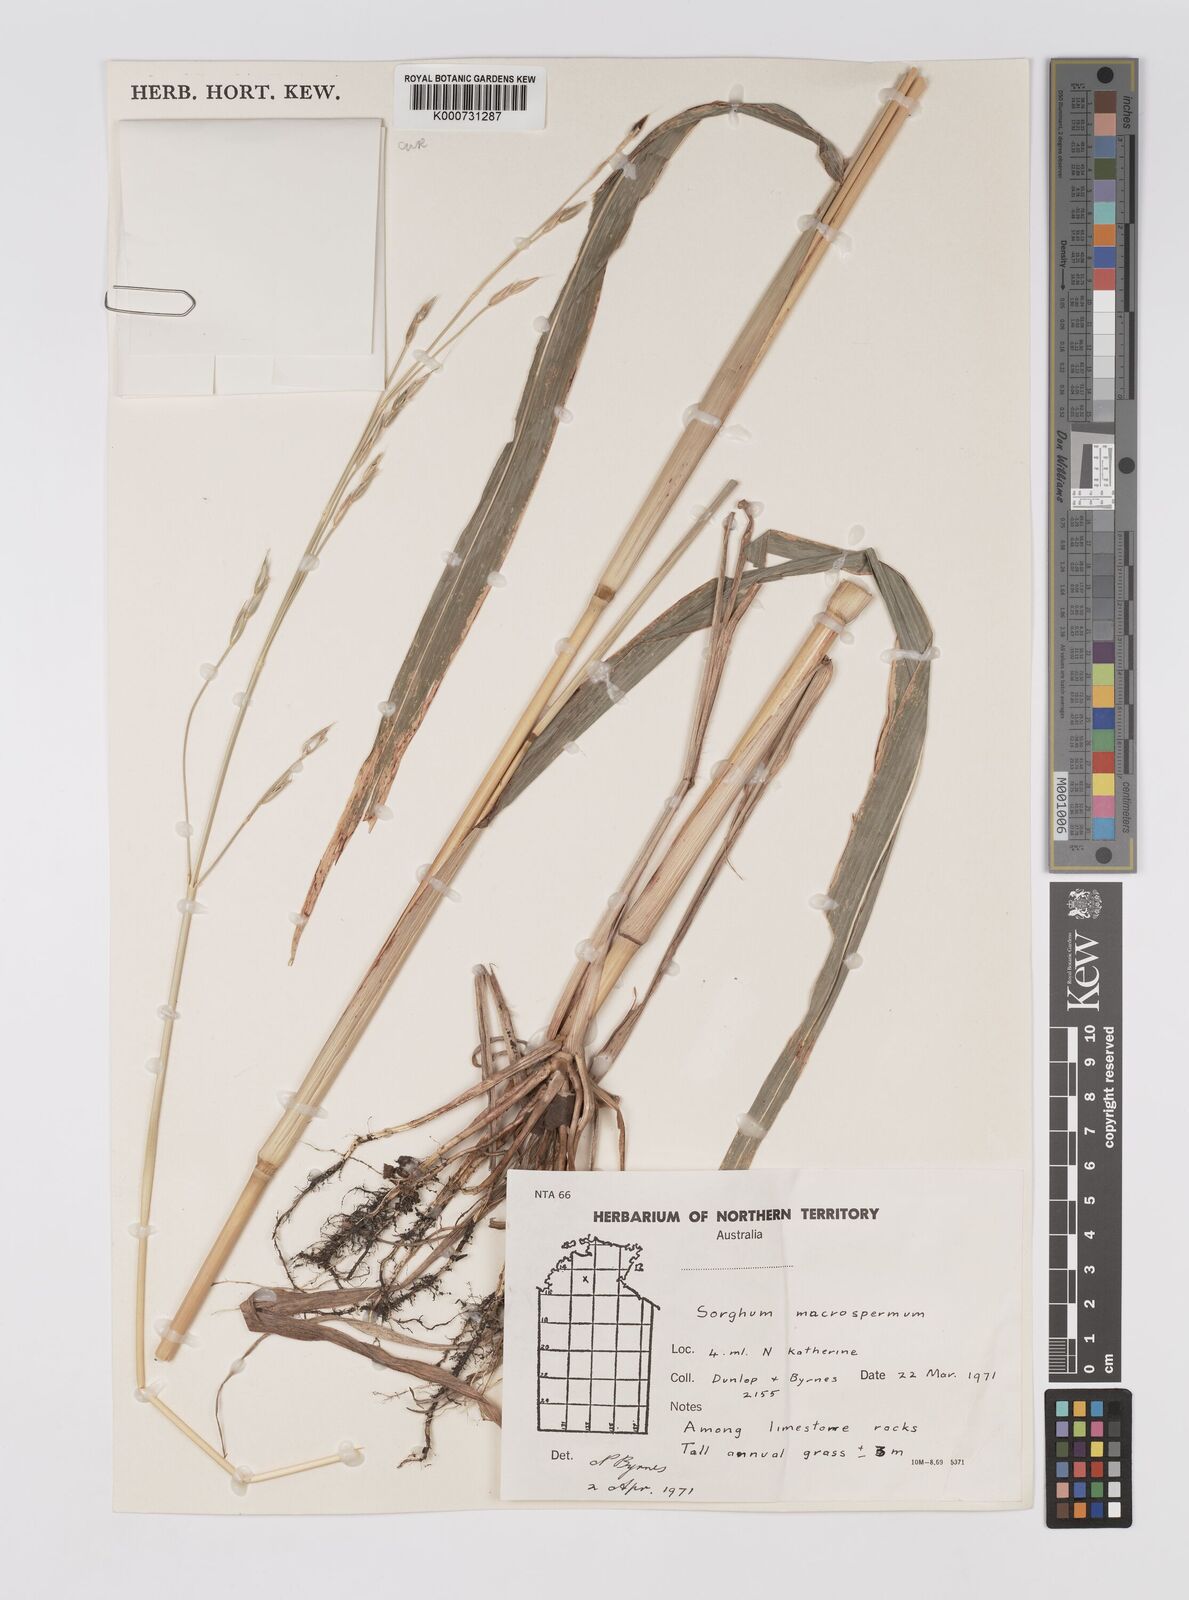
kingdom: Plantae
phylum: Tracheophyta
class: Liliopsida
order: Poales
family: Poaceae
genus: Sorghum
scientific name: Sorghum macrospermum
